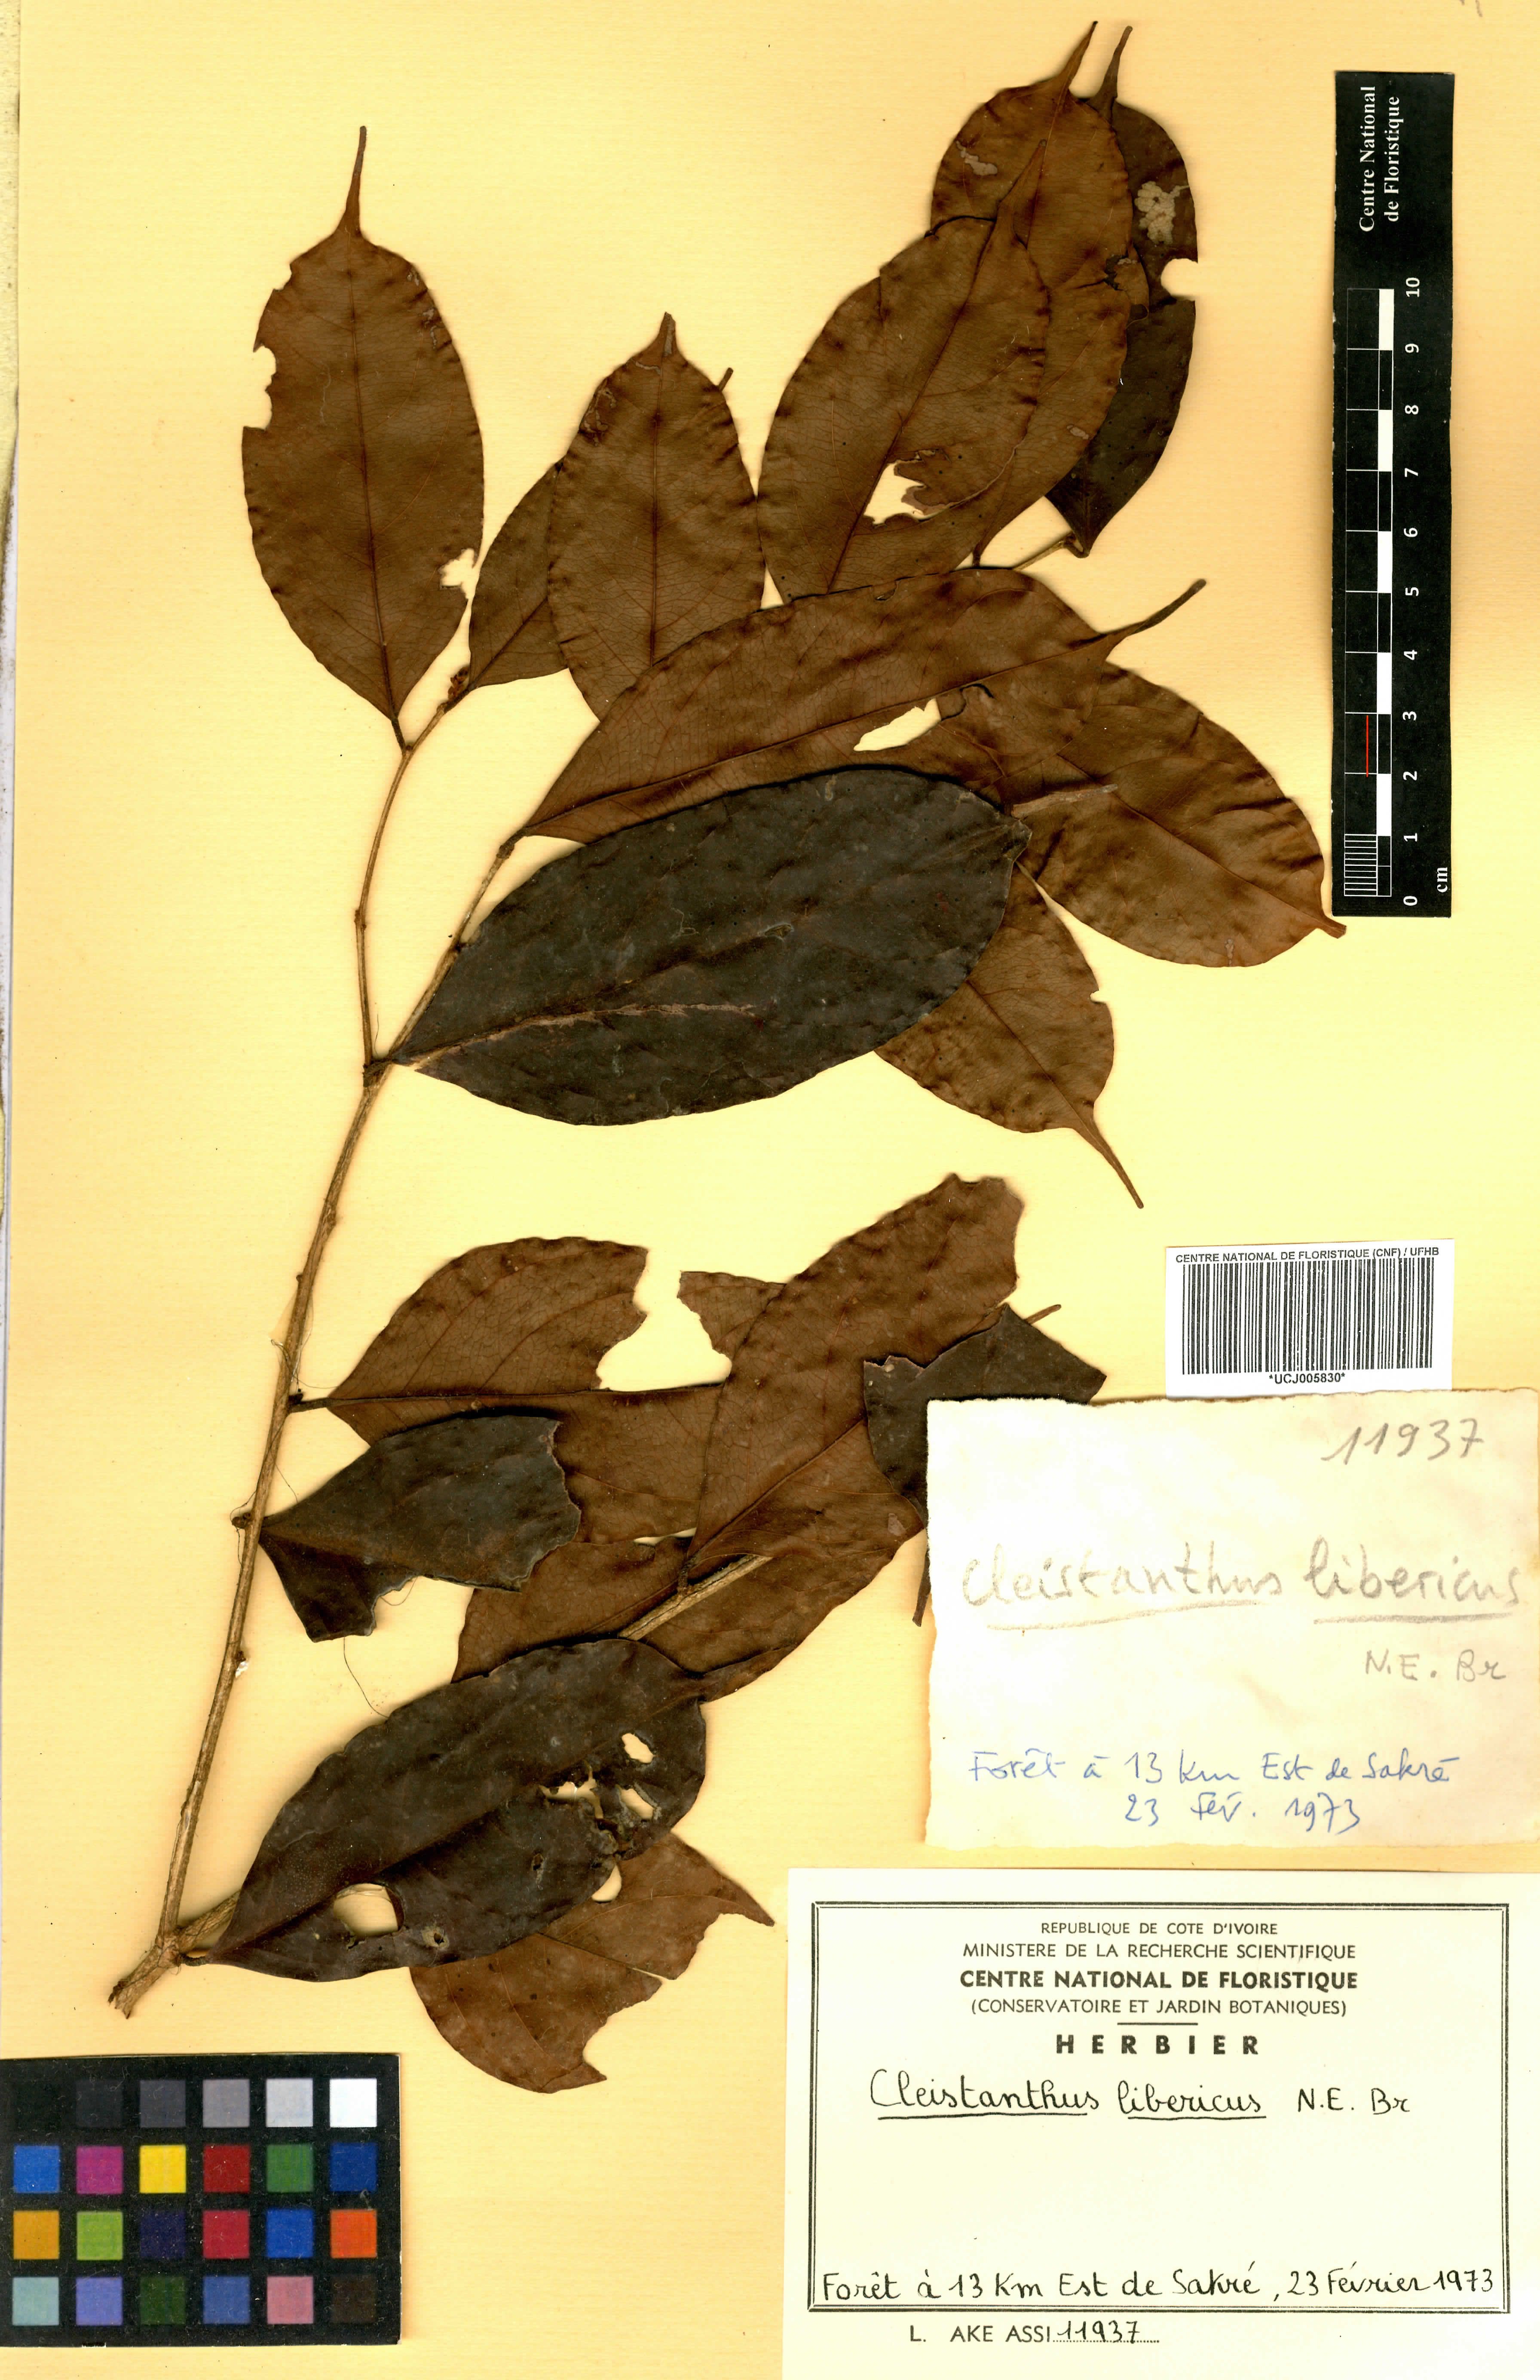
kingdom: Plantae
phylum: Tracheophyta
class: Magnoliopsida
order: Malpighiales
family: Phyllanthaceae
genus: Cleistanthus
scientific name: Cleistanthus libericus
